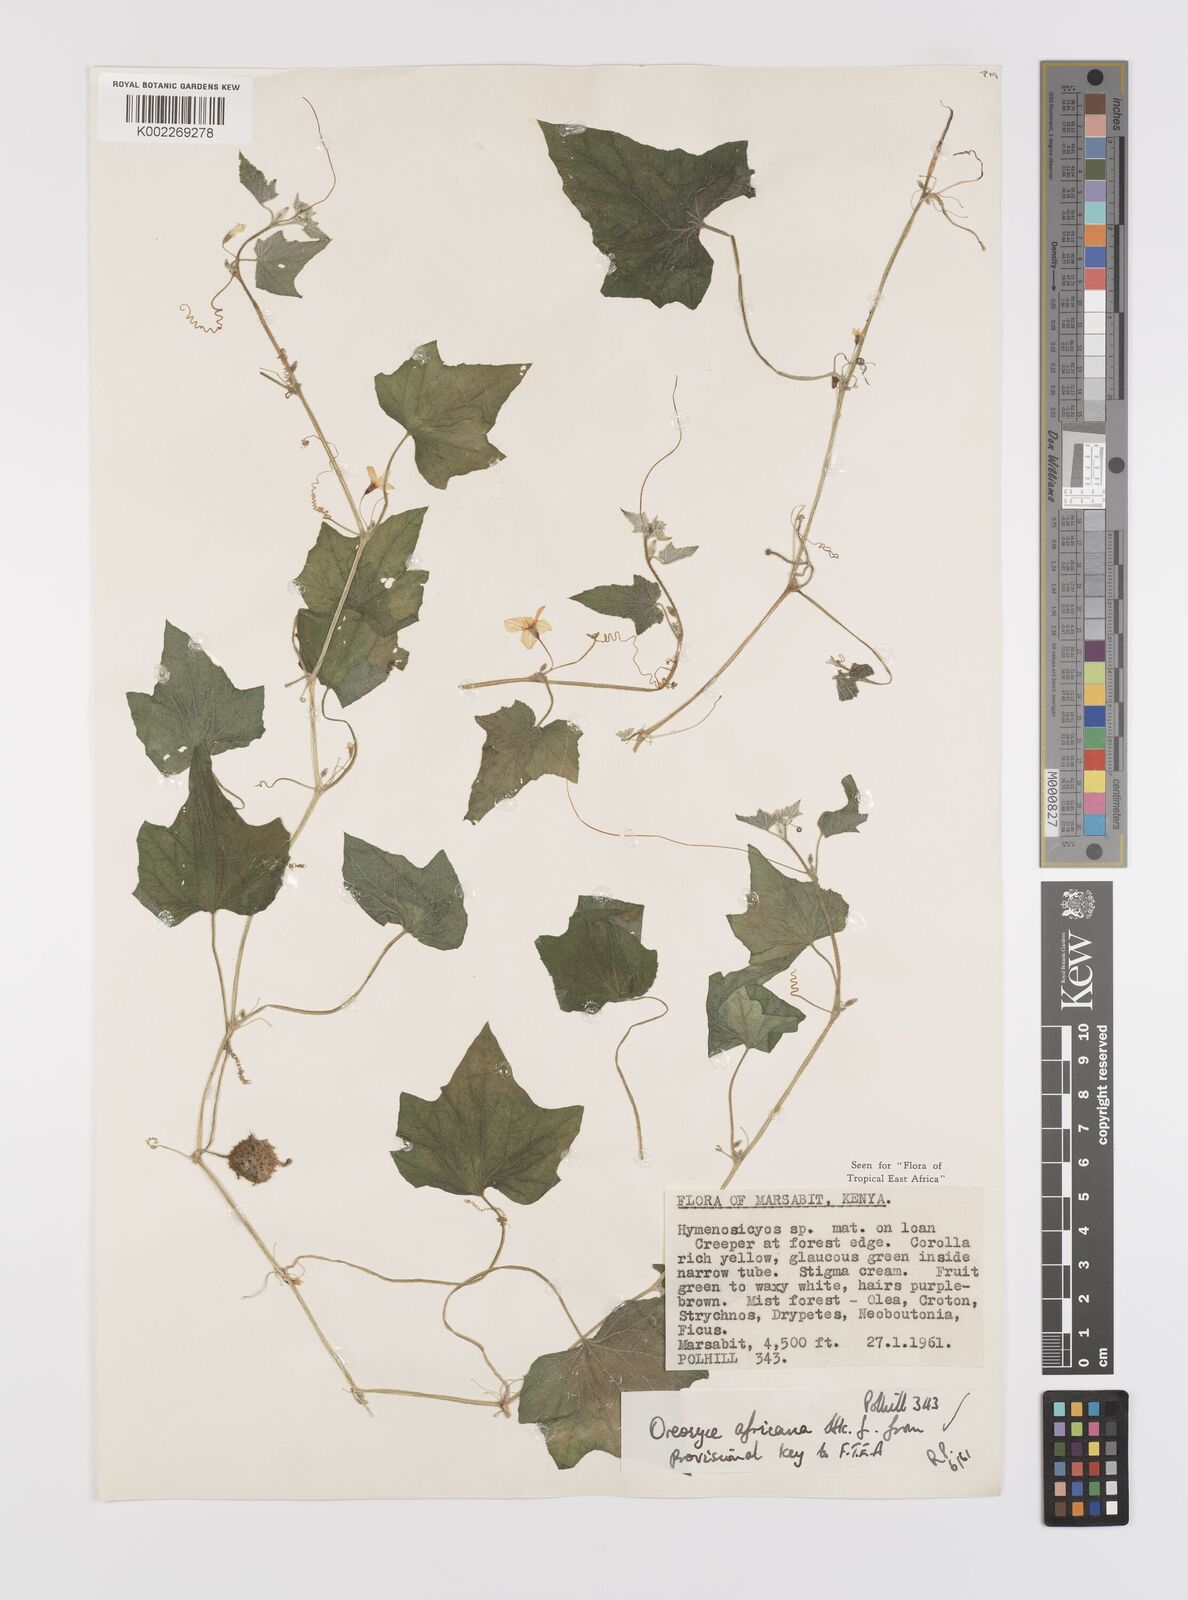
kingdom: Plantae
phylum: Tracheophyta
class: Magnoliopsida
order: Cucurbitales
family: Cucurbitaceae
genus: Cucumis
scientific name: Cucumis oreosyce
